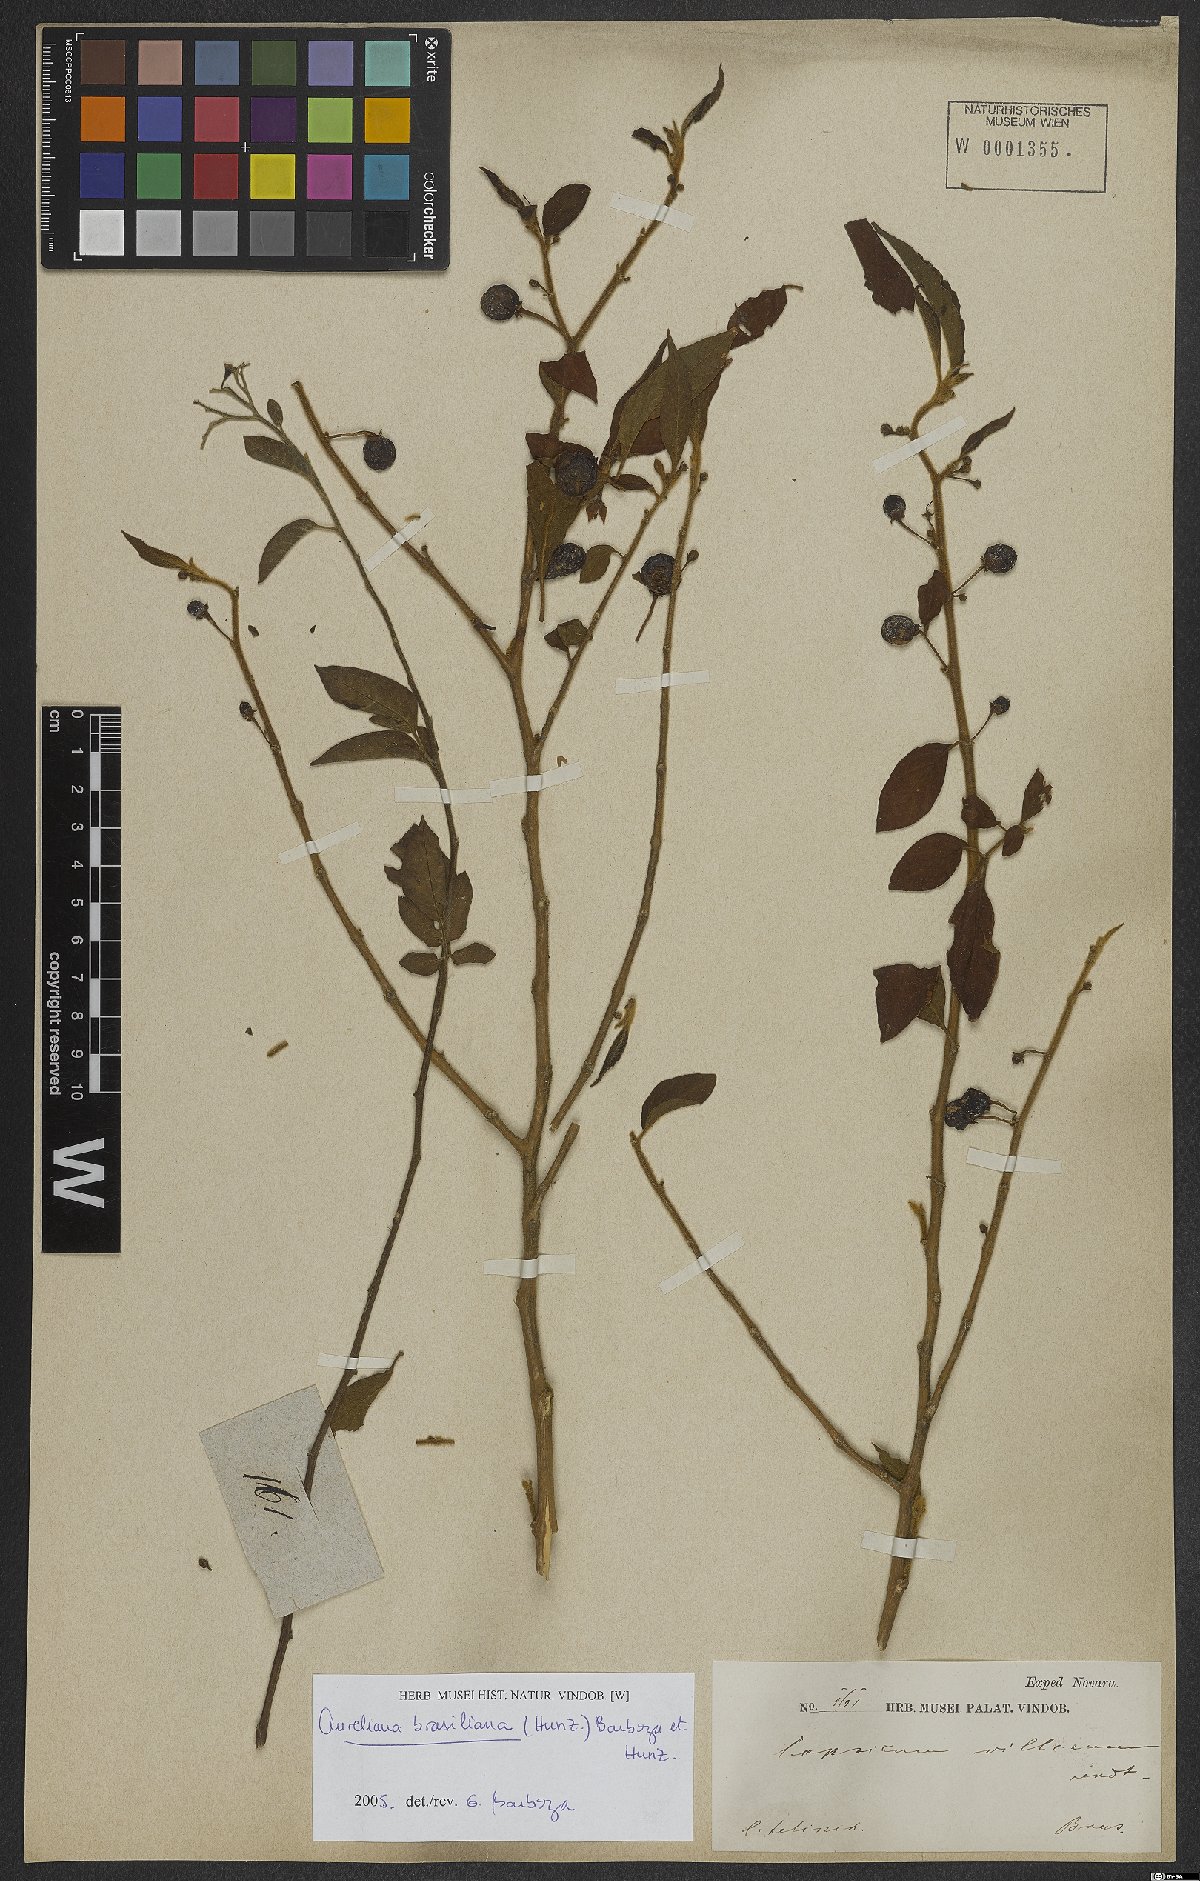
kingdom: Plantae
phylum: Tracheophyta
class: Magnoliopsida
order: Solanales
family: Solanaceae
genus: Athenaea
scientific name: Athenaea brasiliana
